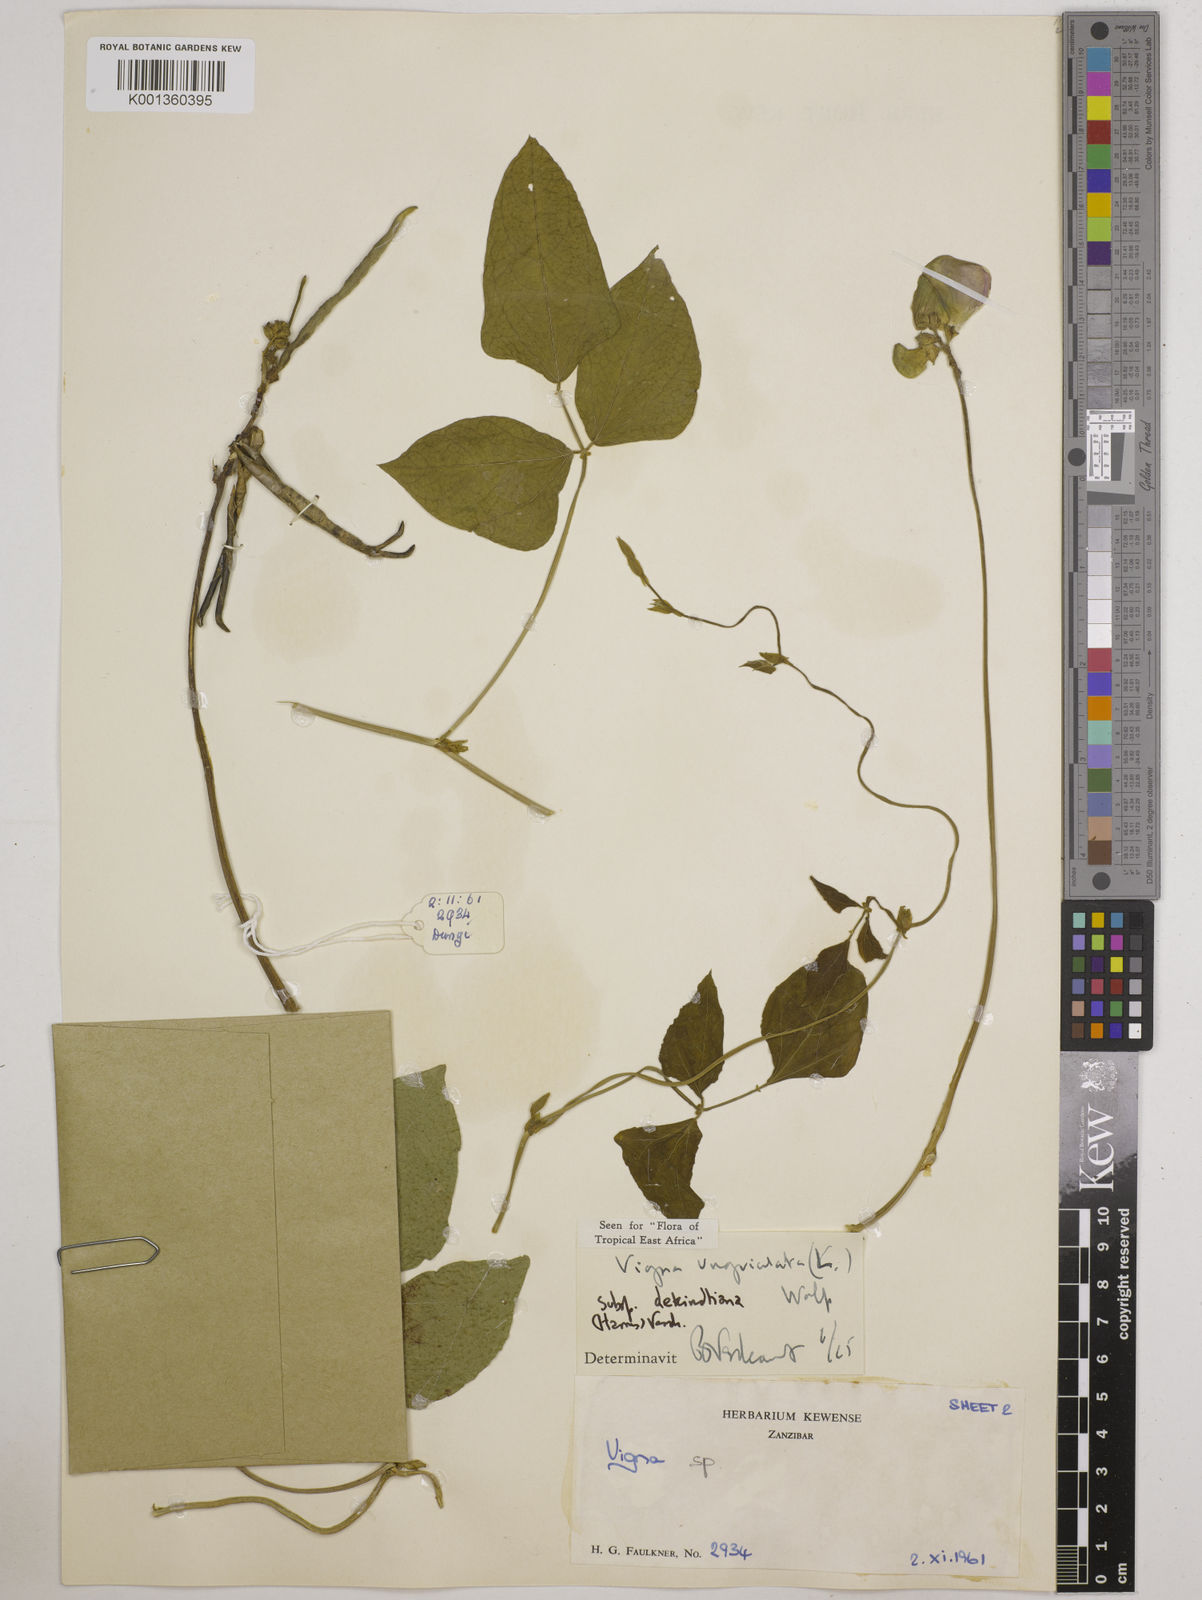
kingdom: Plantae
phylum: Tracheophyta
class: Magnoliopsida
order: Fabales
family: Fabaceae
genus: Vigna
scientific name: Vigna
